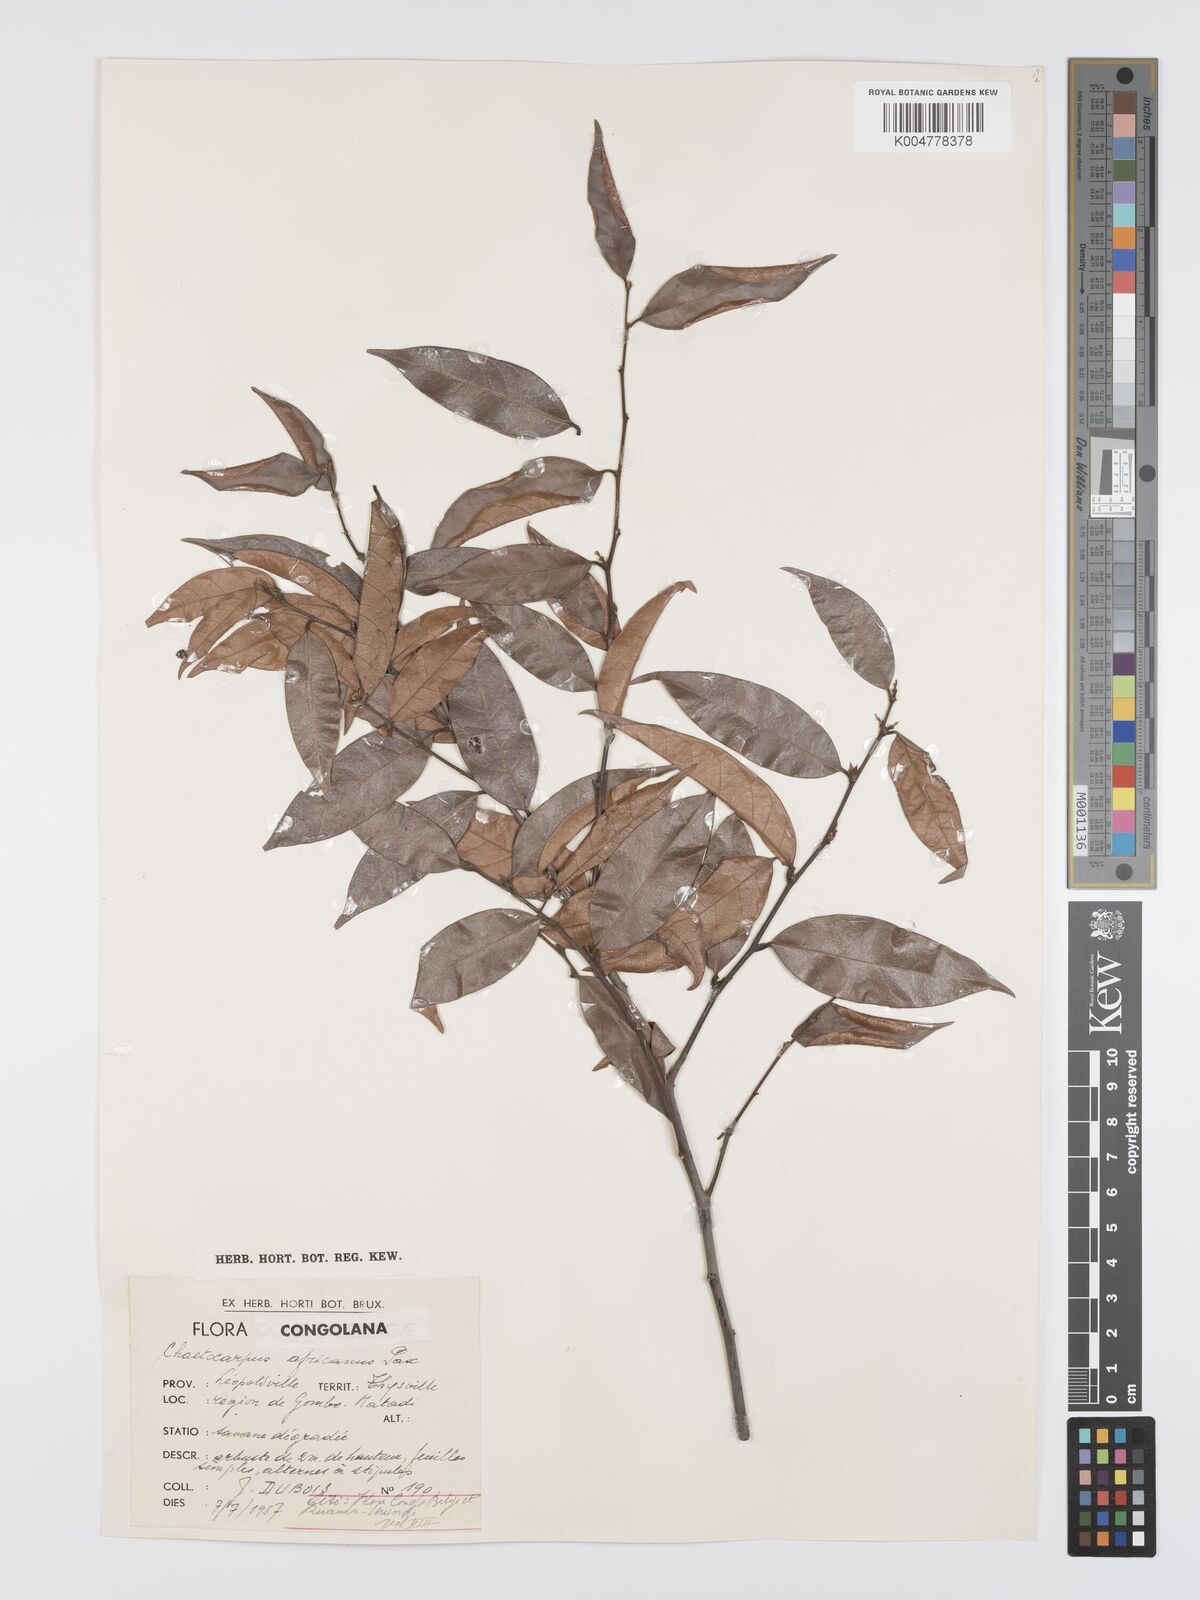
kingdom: Plantae
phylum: Tracheophyta
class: Magnoliopsida
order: Malpighiales
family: Peraceae
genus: Chaetocarpus
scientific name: Chaetocarpus africanus
